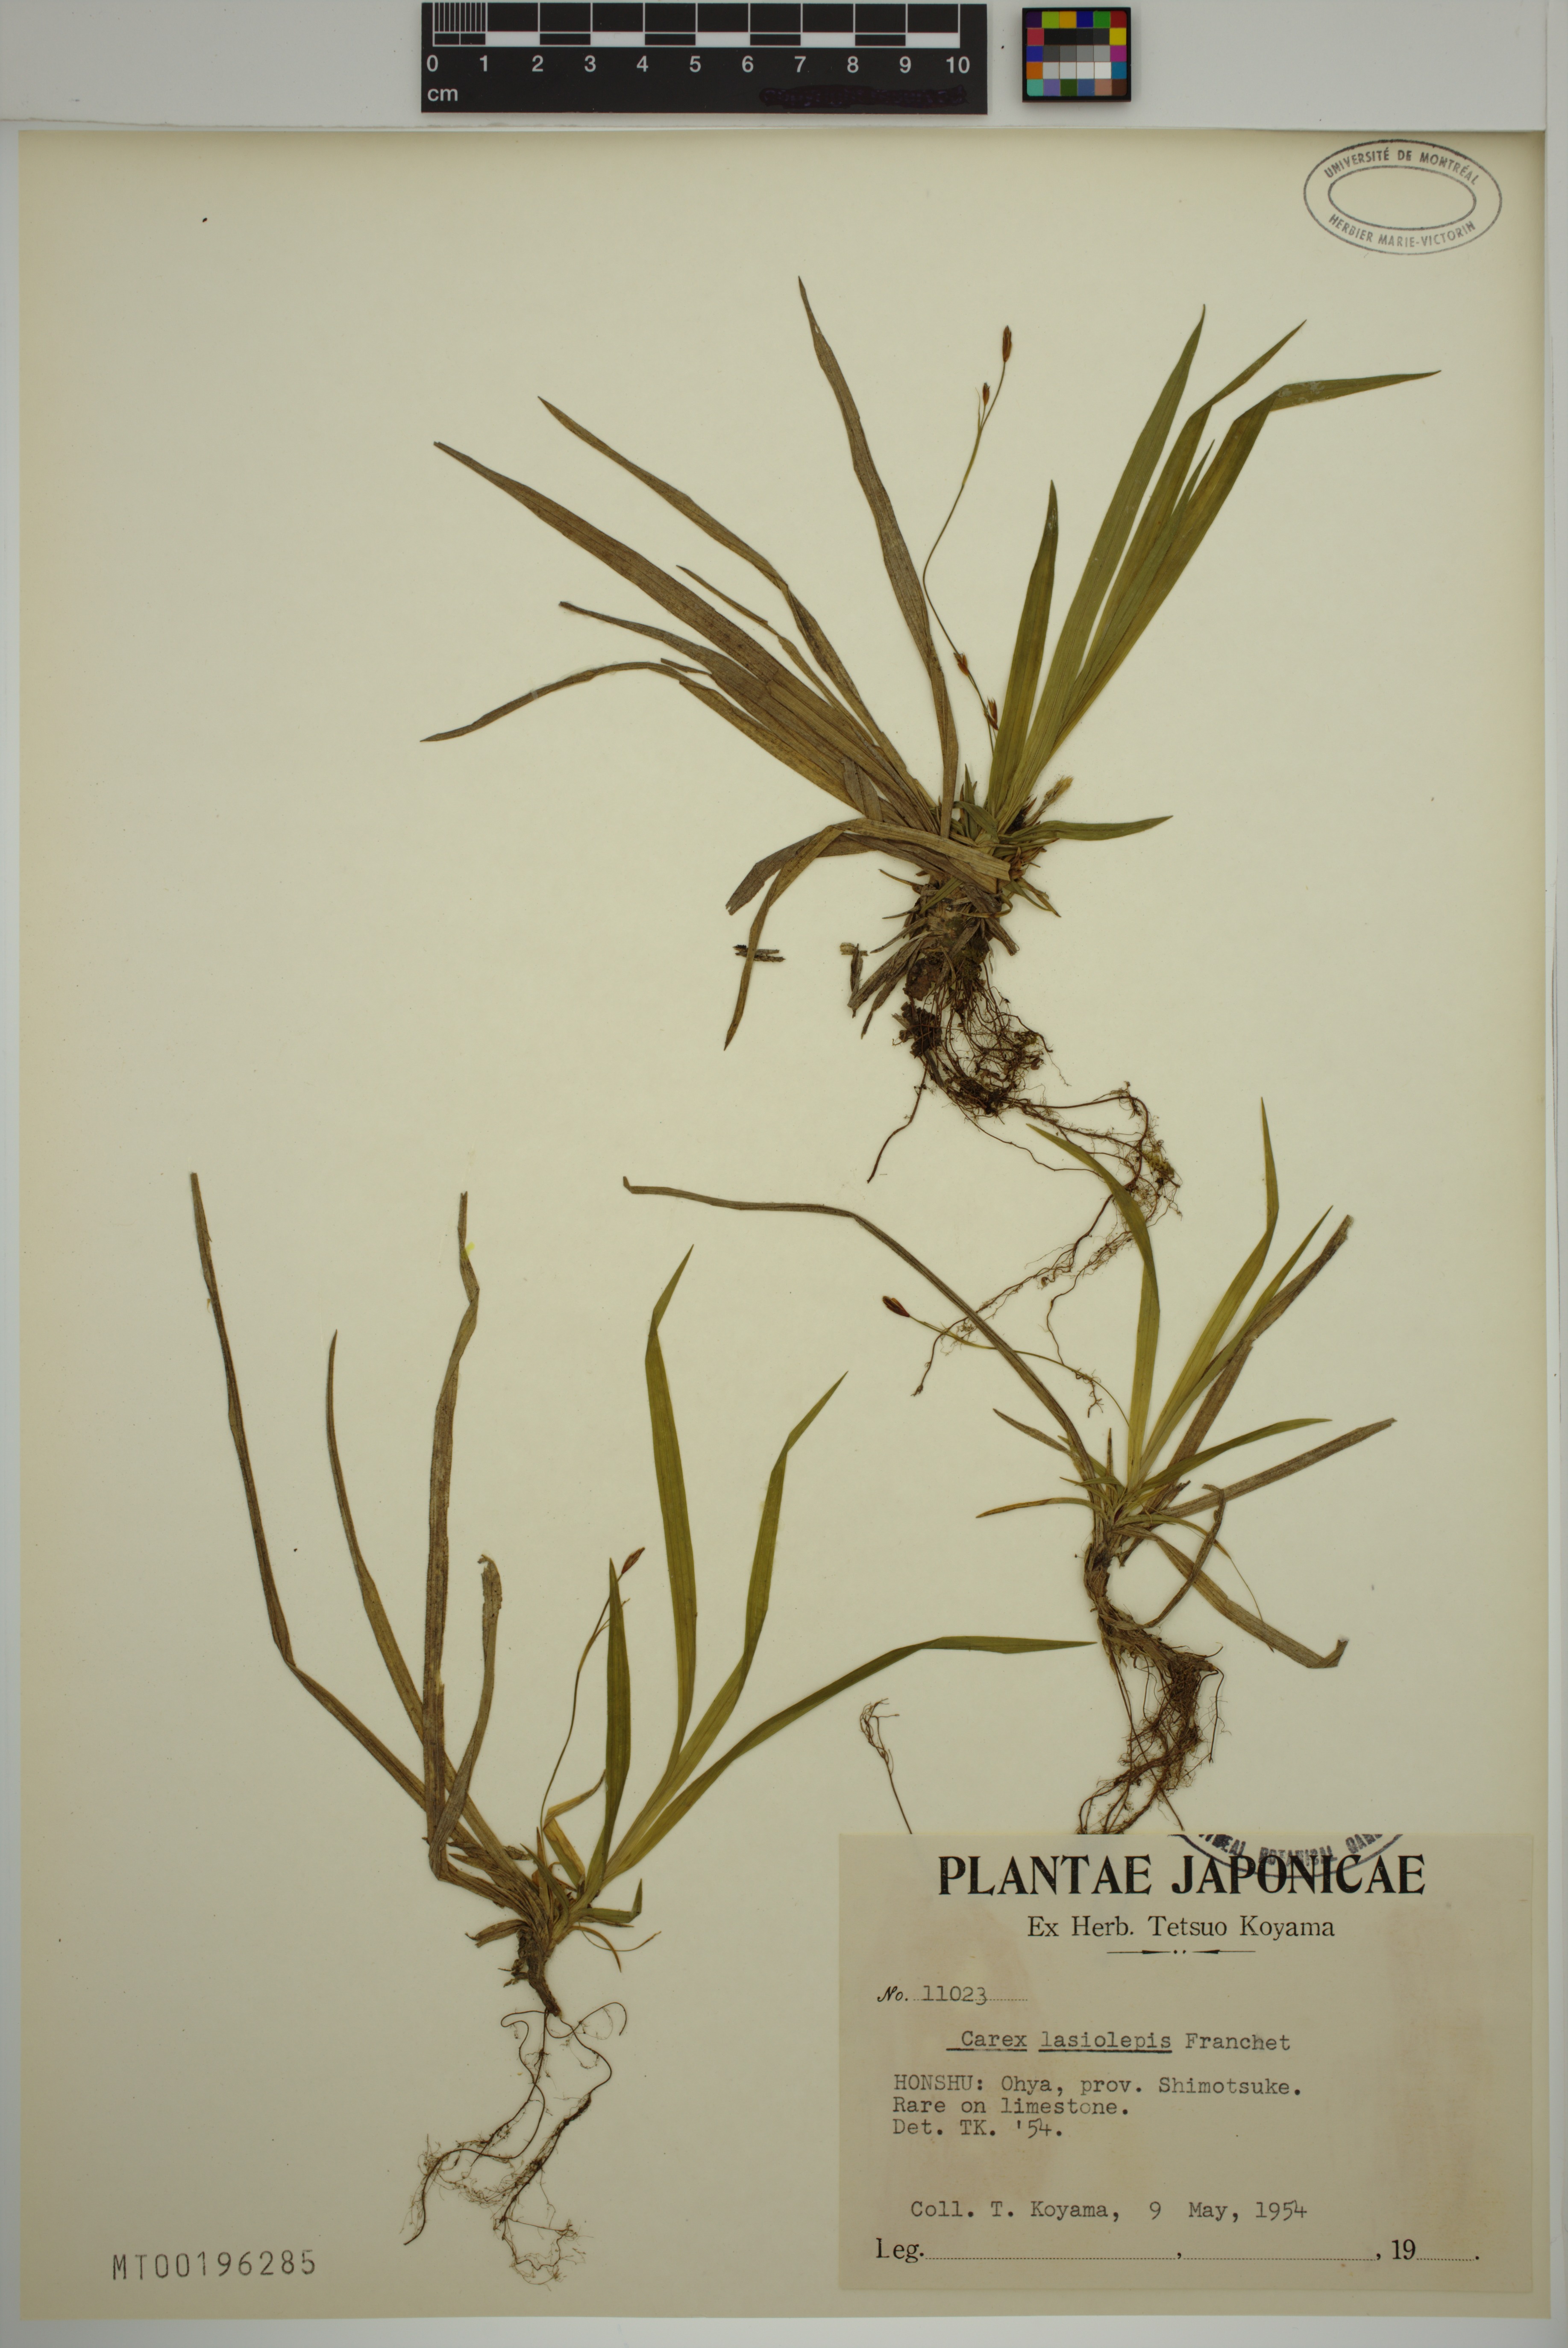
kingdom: Plantae
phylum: Tracheophyta
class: Liliopsida
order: Poales
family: Cyperaceae
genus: Carex
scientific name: Carex lasiolepis
